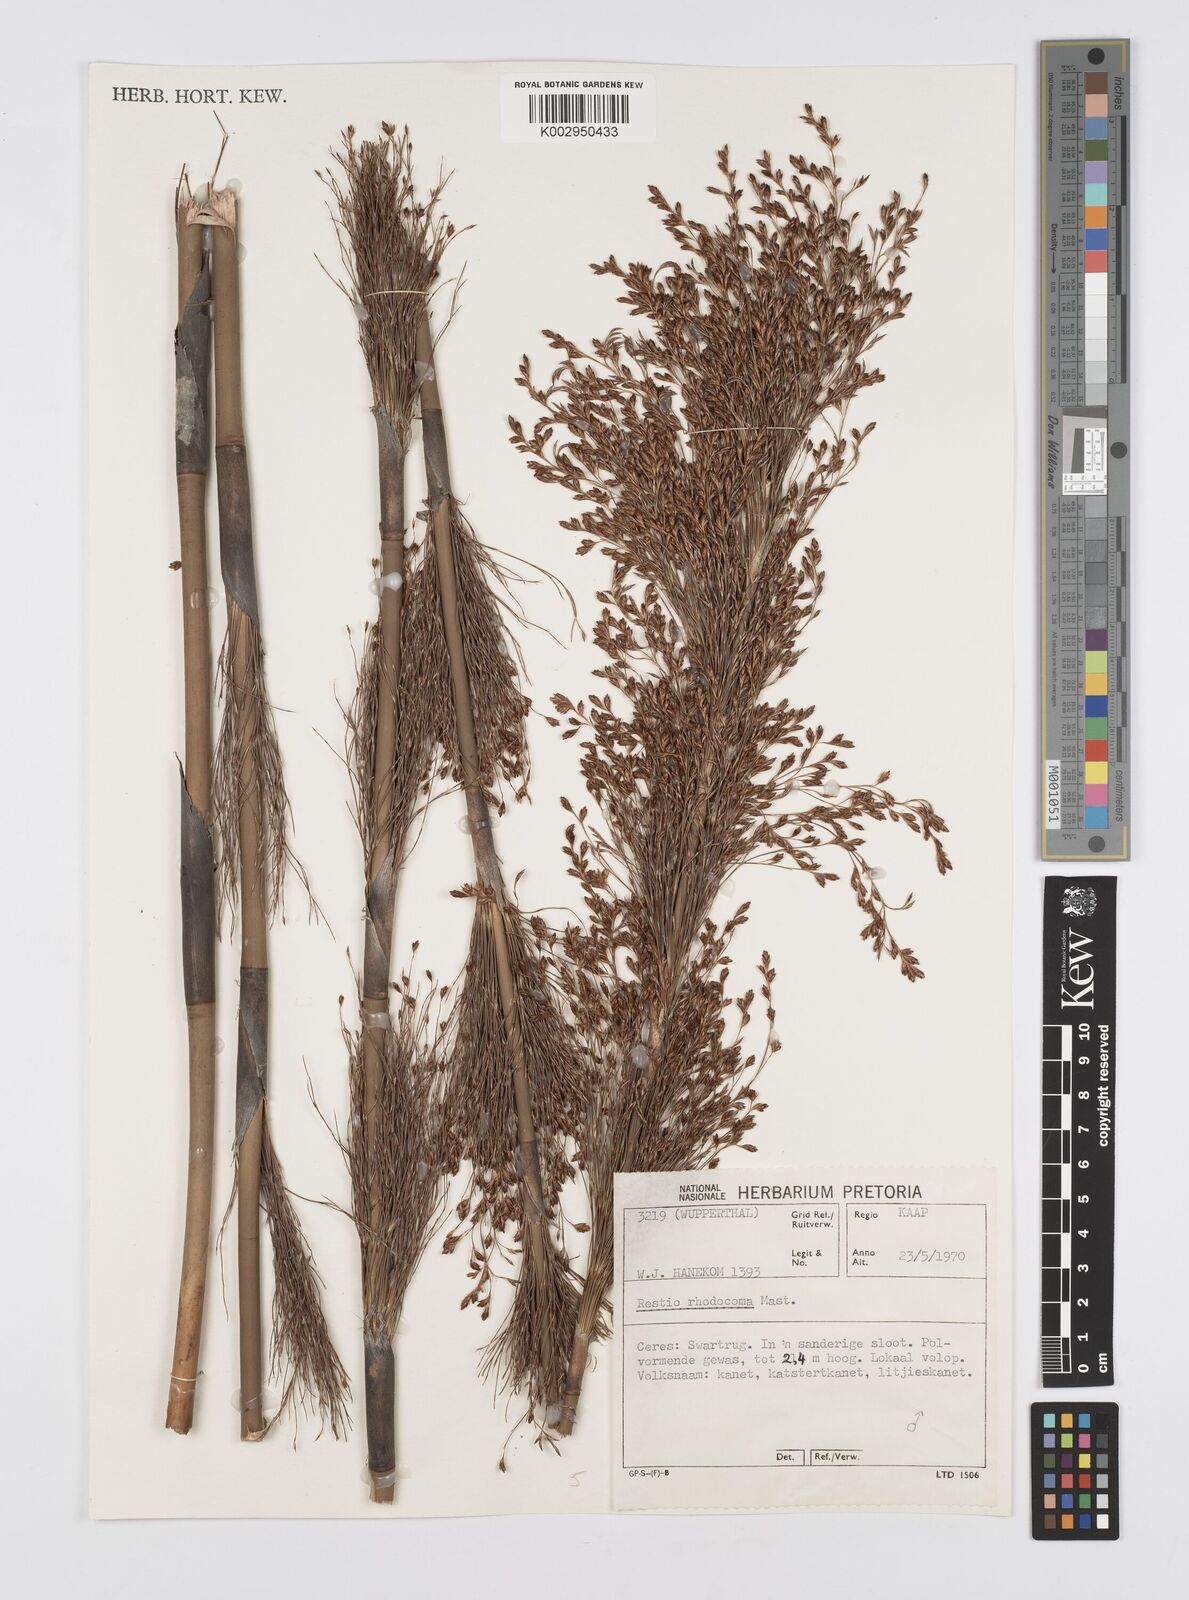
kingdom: Plantae
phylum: Tracheophyta
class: Liliopsida
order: Poales
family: Restionaceae
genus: Rhodocoma
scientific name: Rhodocoma capensis
